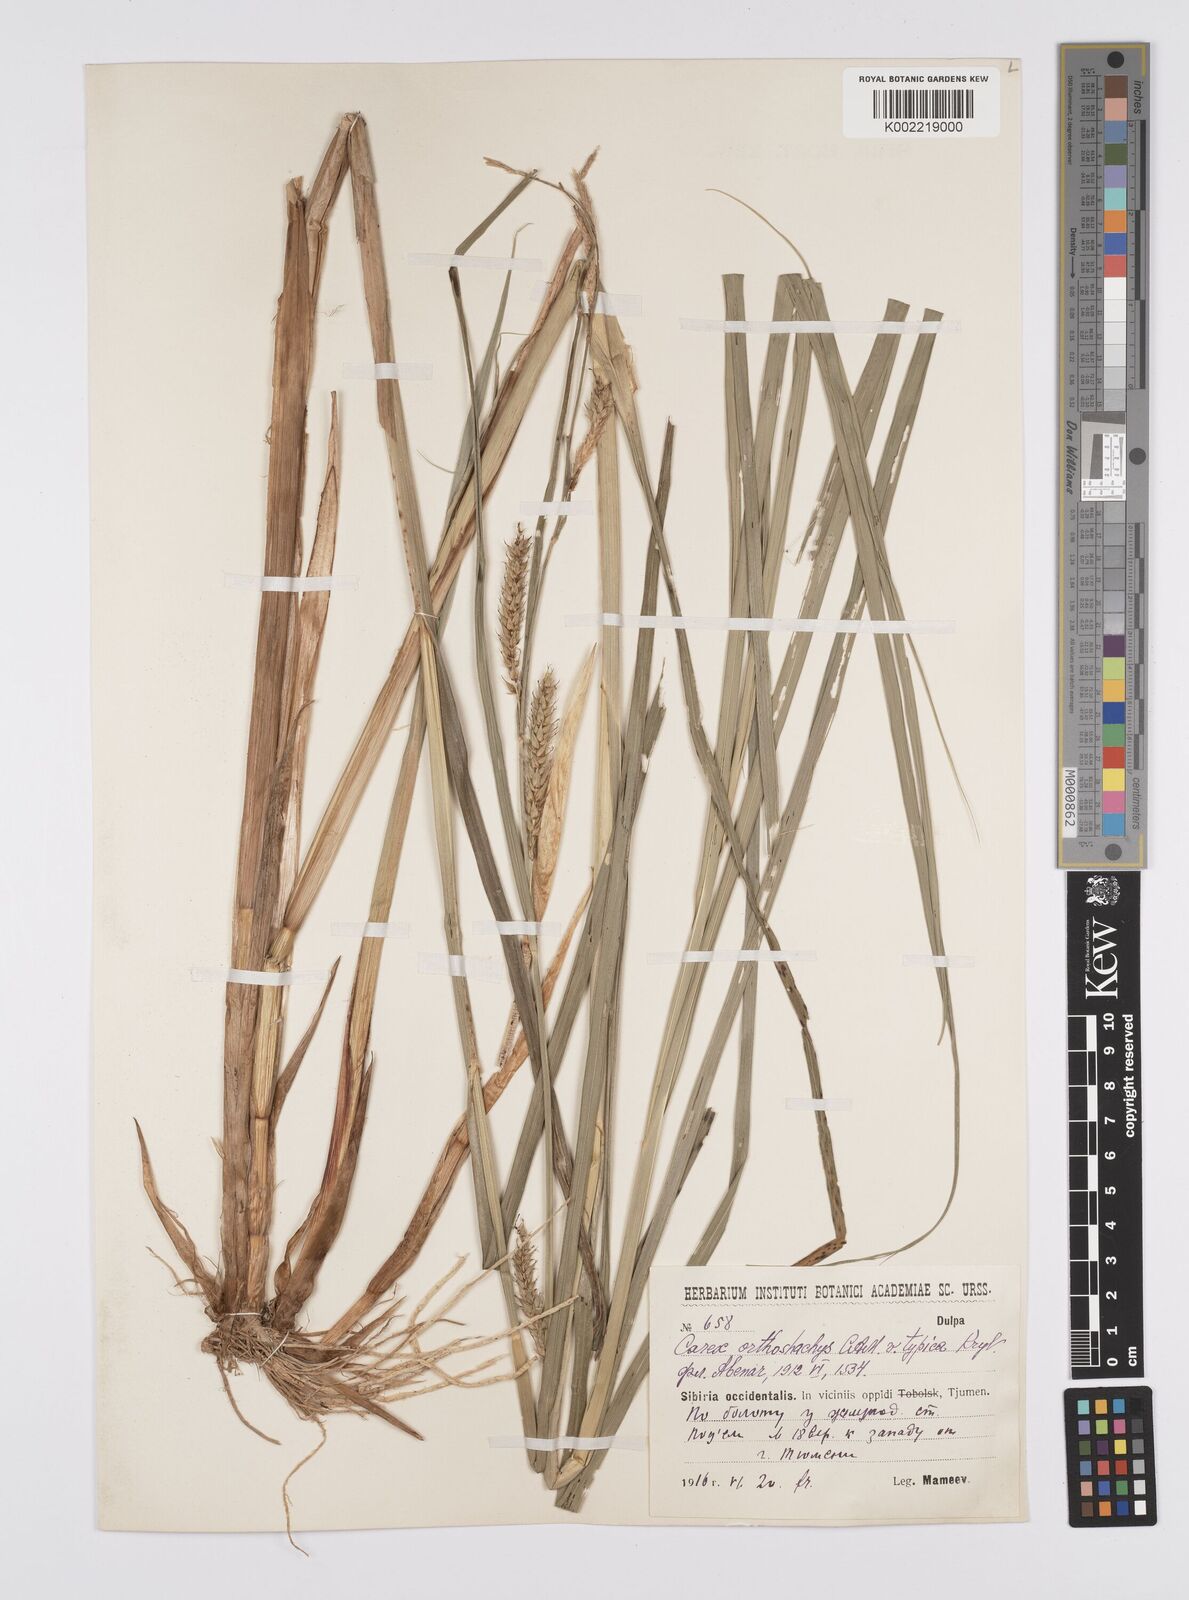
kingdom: Plantae
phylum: Tracheophyta
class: Liliopsida
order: Poales
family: Cyperaceae
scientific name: Cyperaceae
